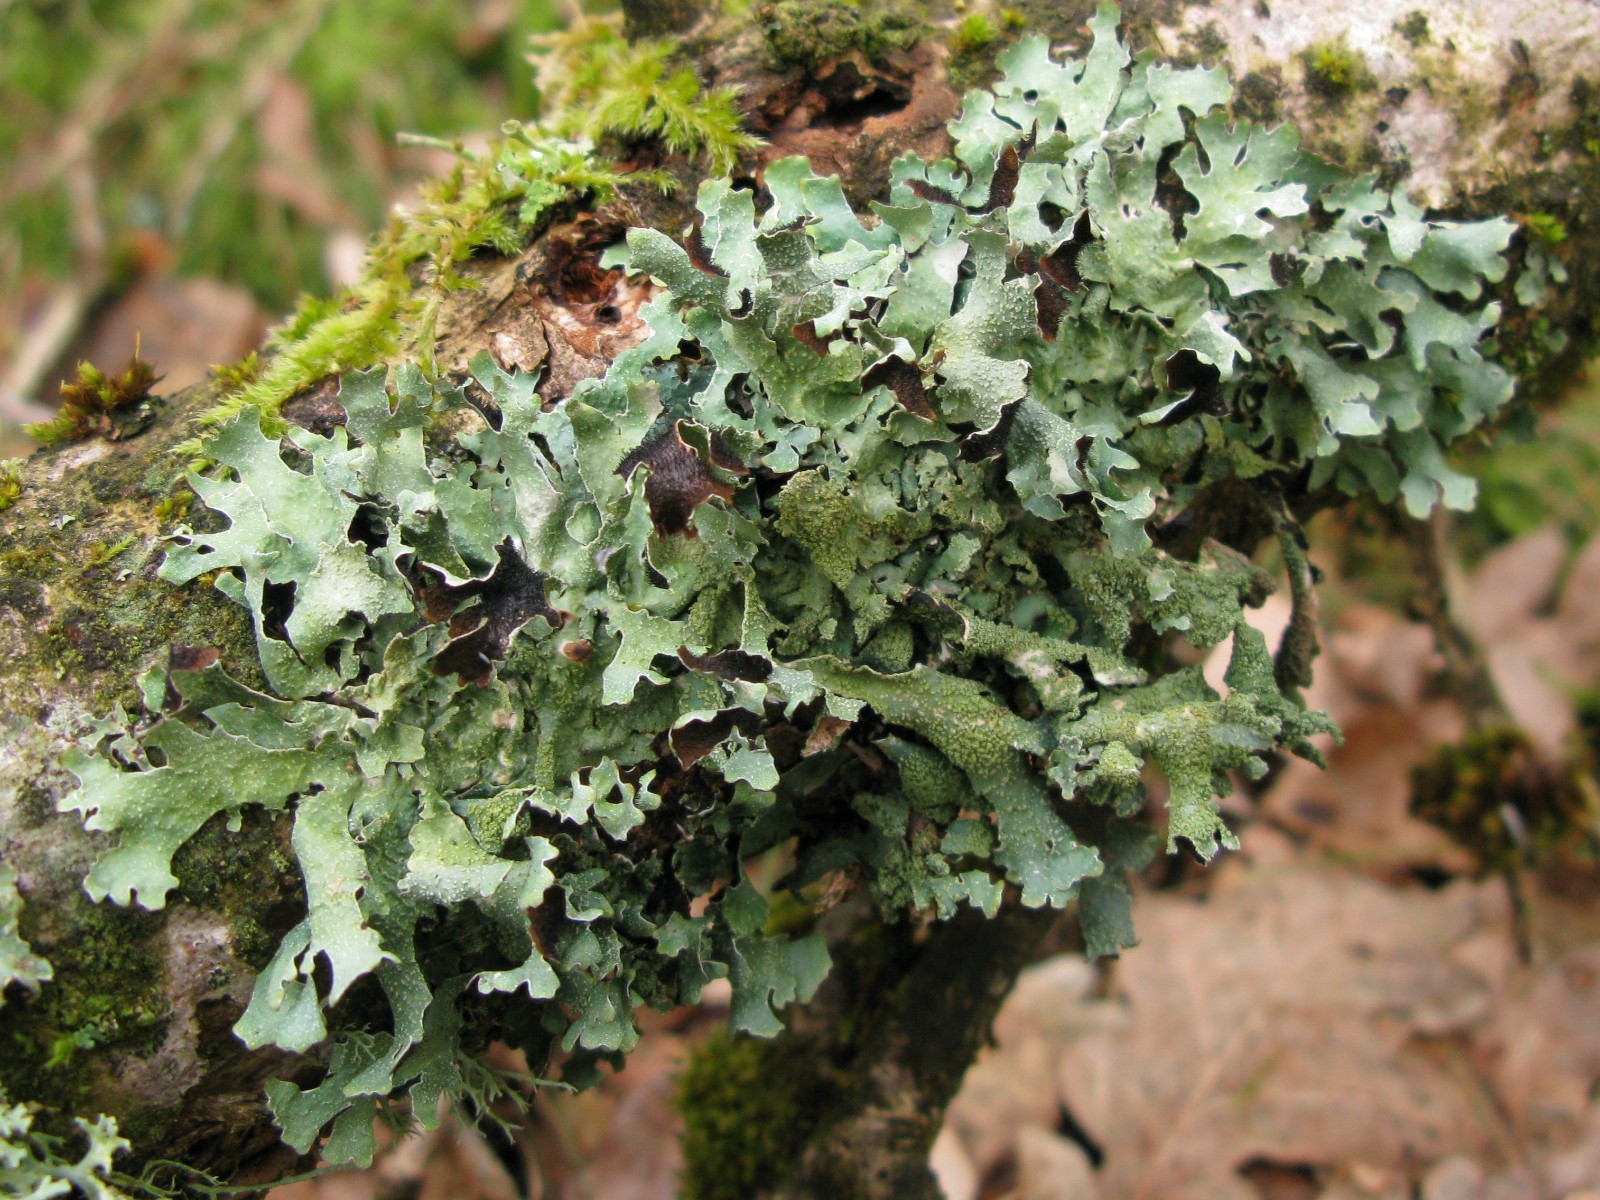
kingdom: Fungi
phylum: Ascomycota
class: Lecanoromycetes
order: Lecanorales
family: Parmeliaceae
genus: Parmelia
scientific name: Parmelia submontana
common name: langlobet skållav
